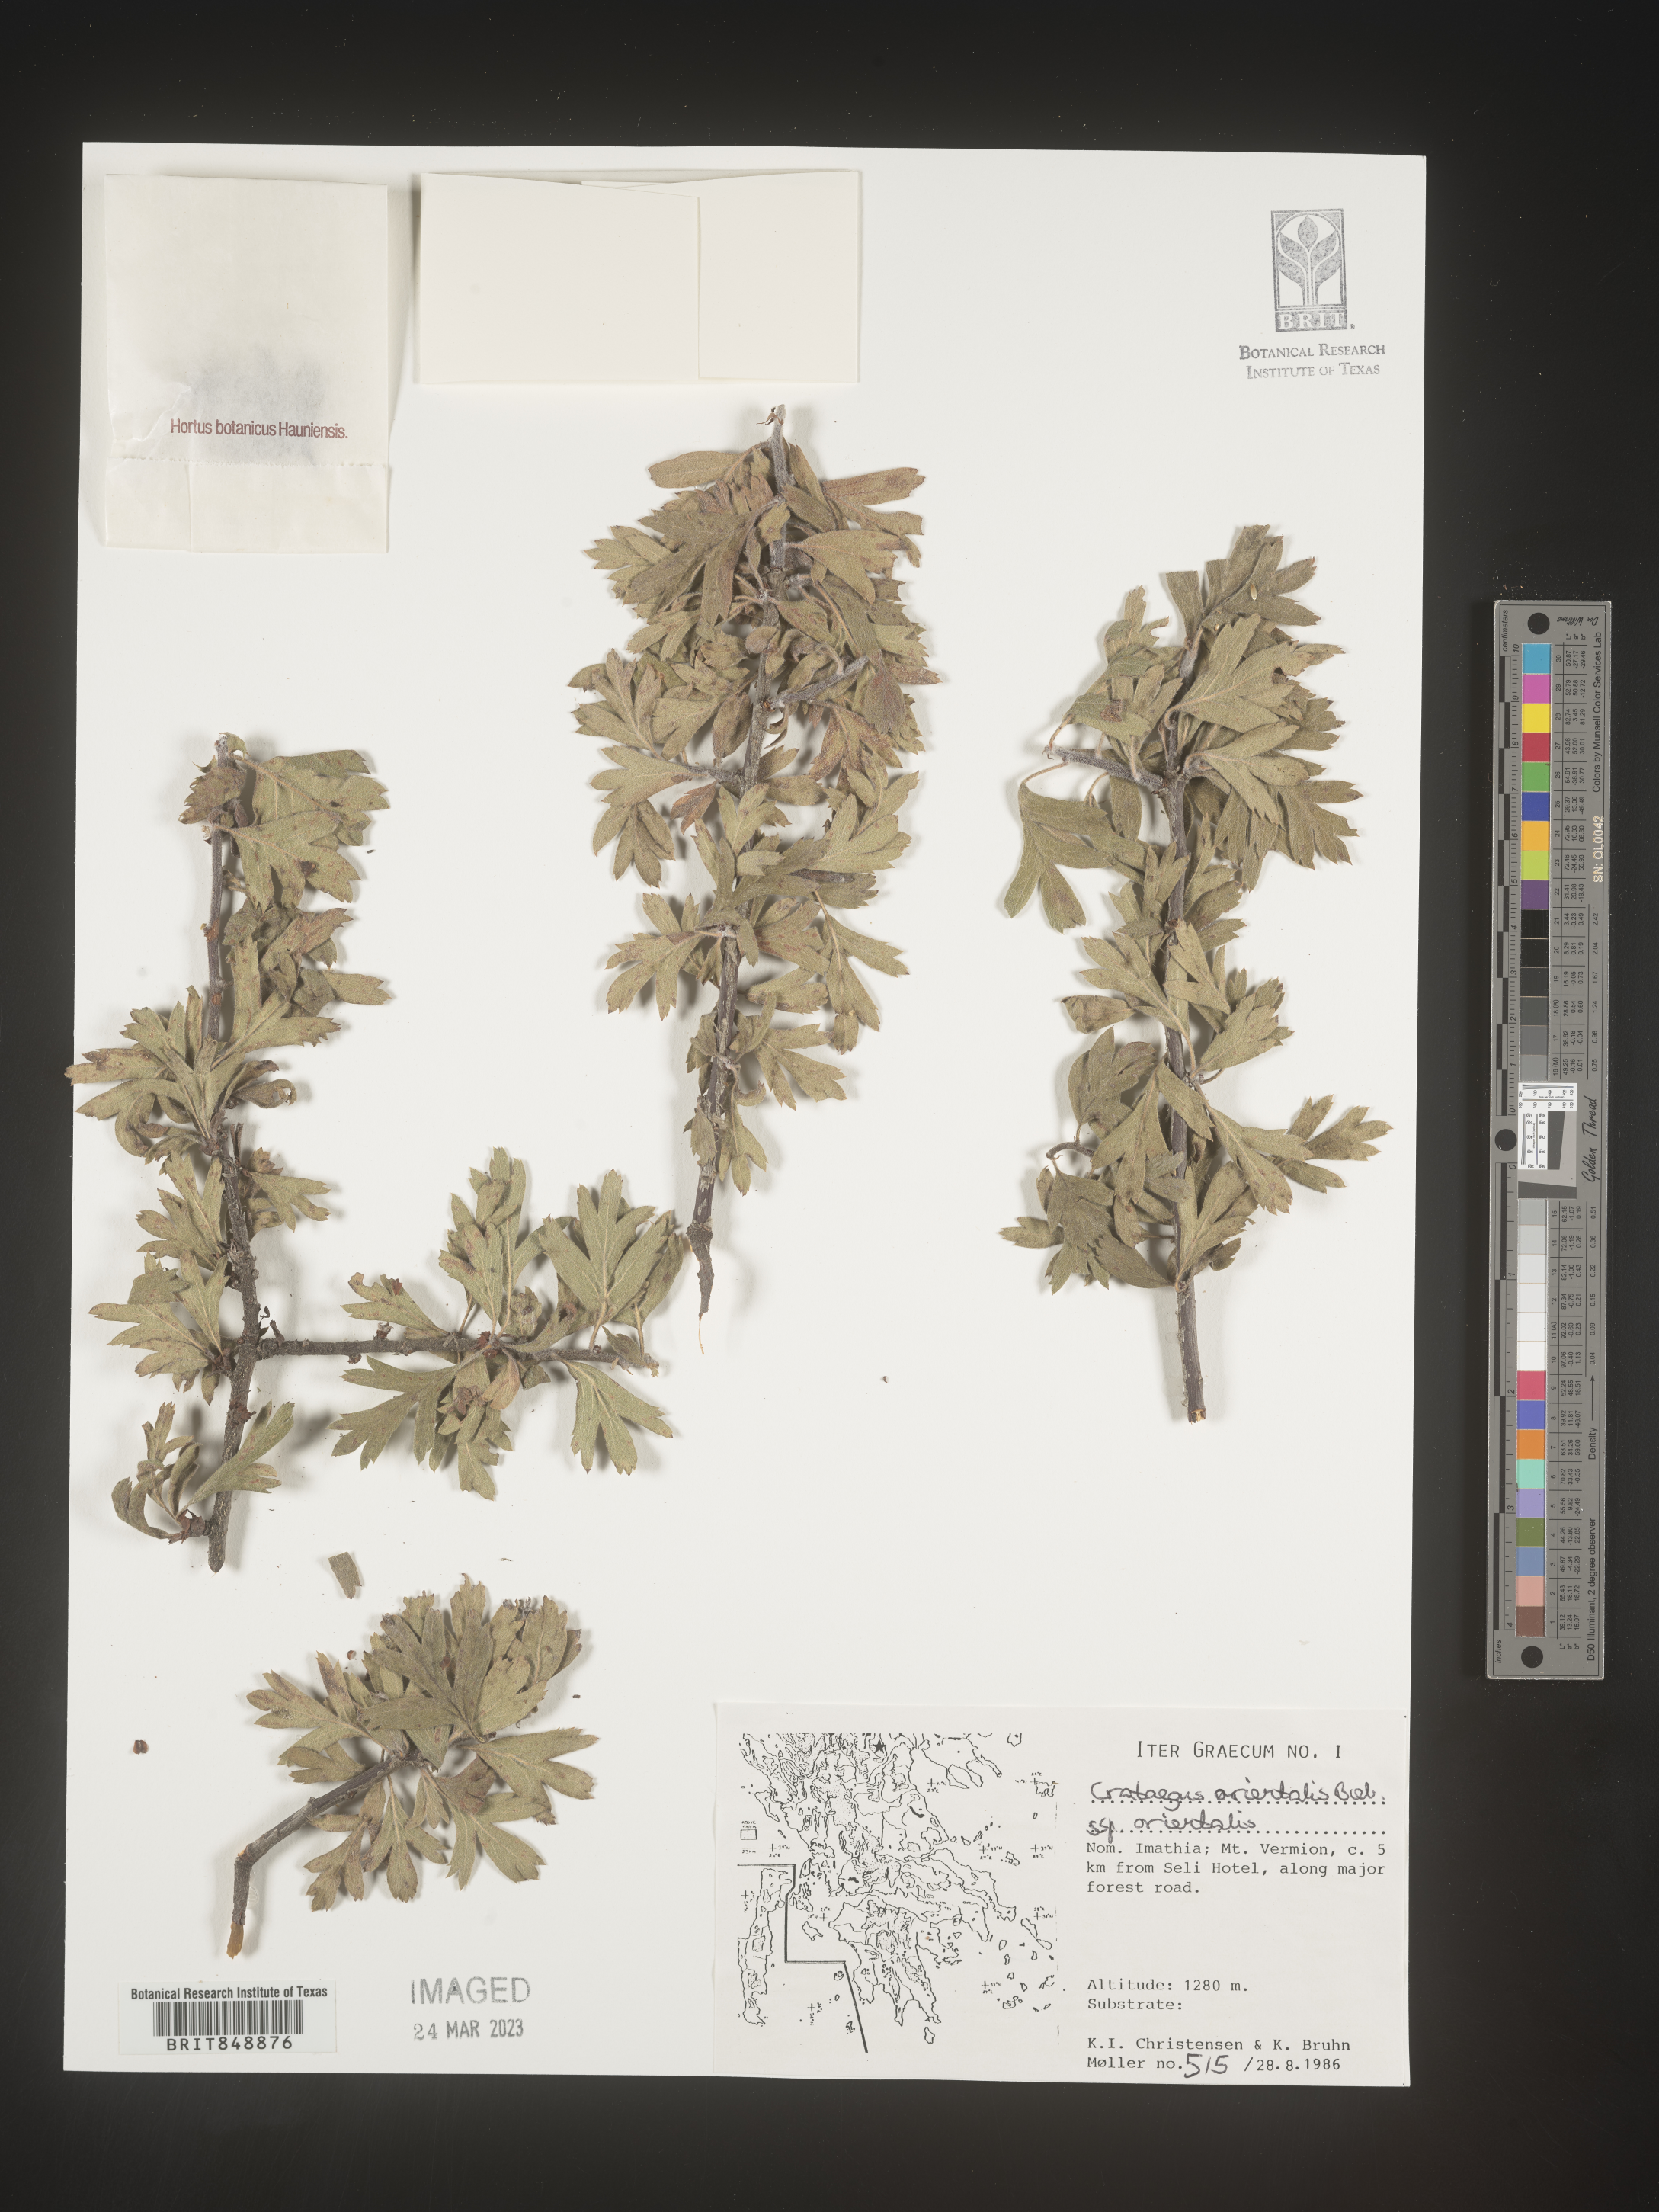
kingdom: Plantae
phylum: Tracheophyta
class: Magnoliopsida
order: Rosales
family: Rosaceae
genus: Crataegus
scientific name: Crataegus
